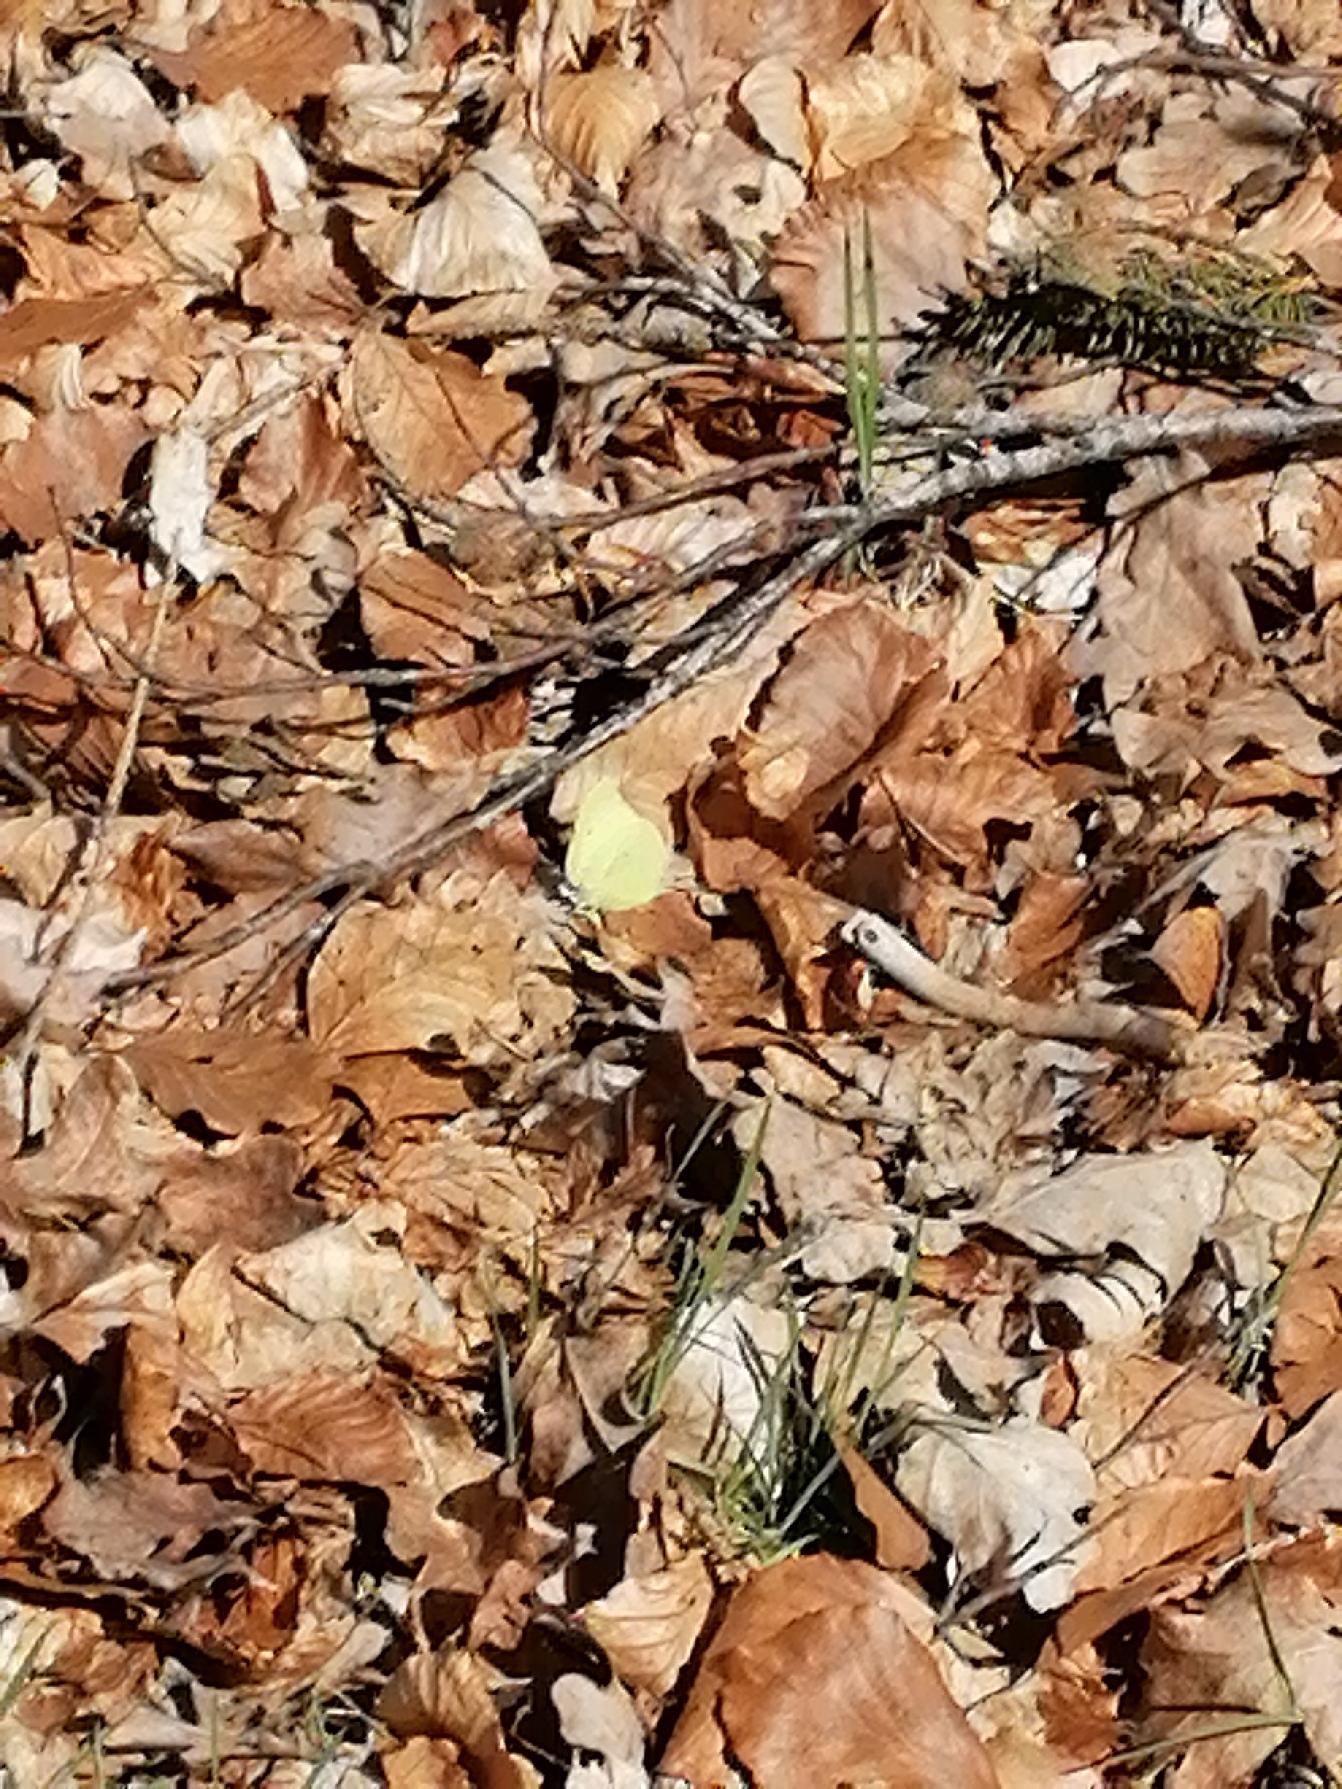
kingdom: Animalia
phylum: Arthropoda
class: Insecta
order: Lepidoptera
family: Pieridae
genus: Gonepteryx
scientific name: Gonepteryx rhamni
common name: Citronsommerfugl
